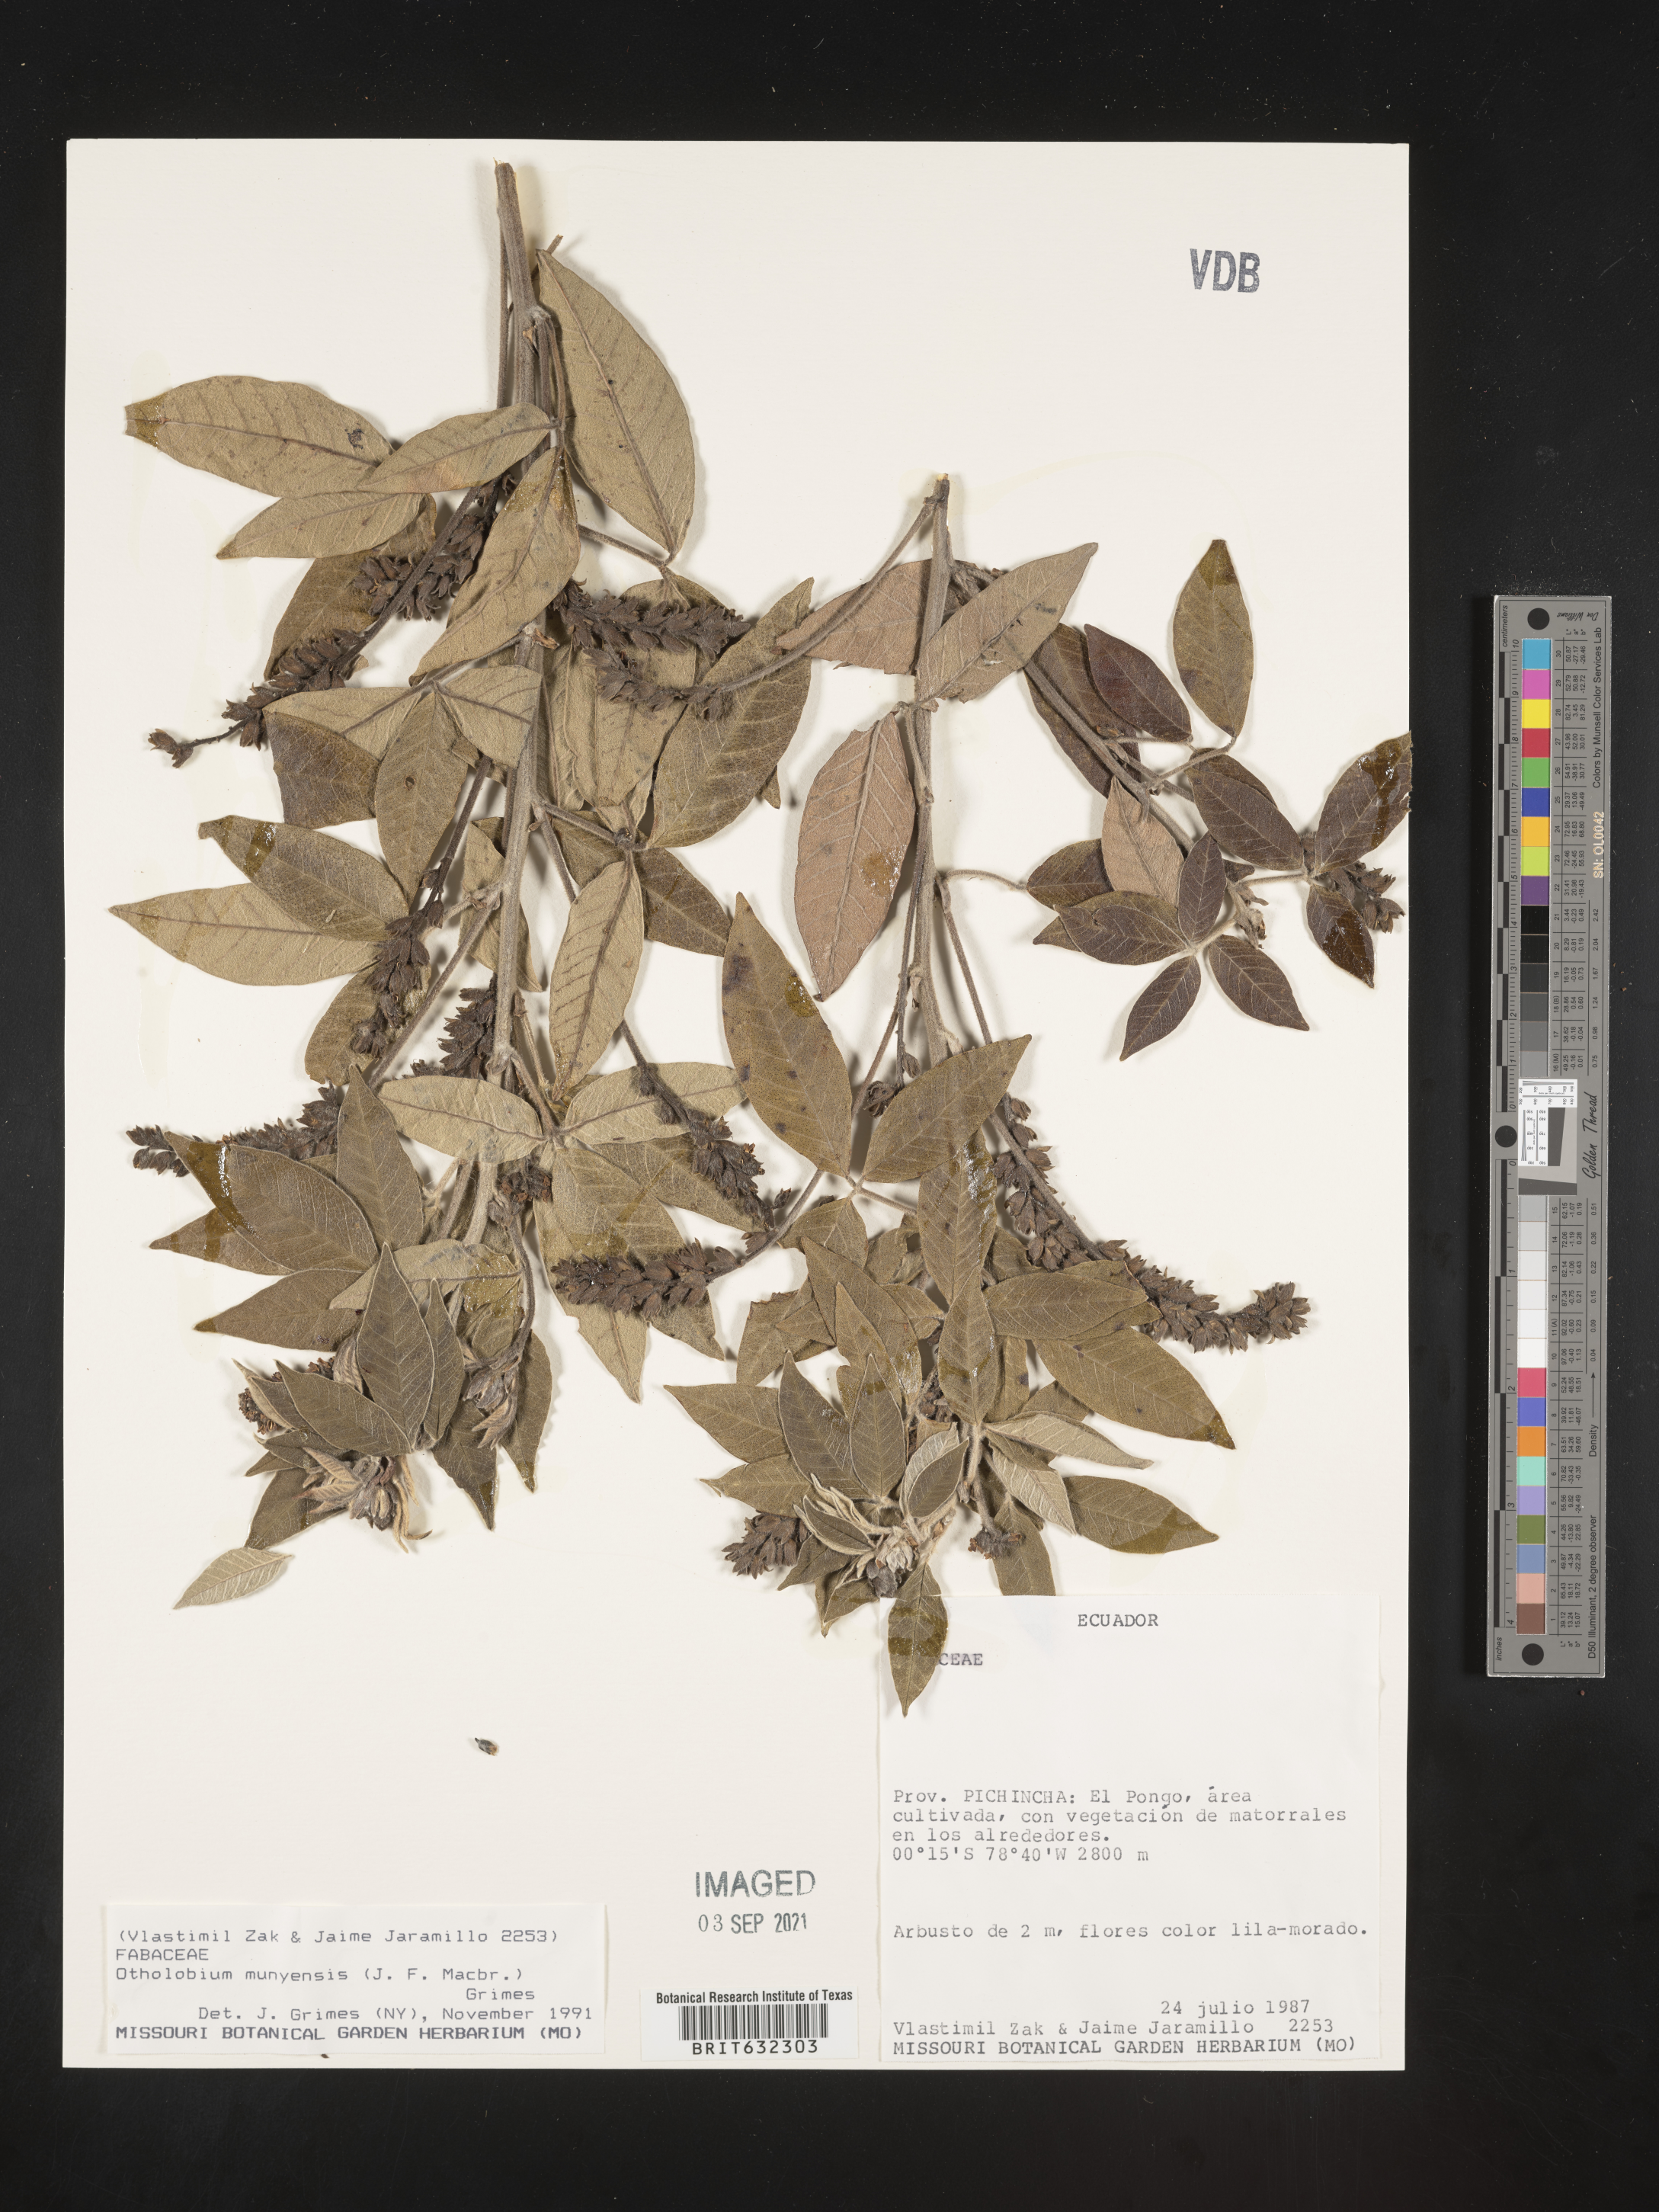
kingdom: Plantae
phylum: Tracheophyta
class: Magnoliopsida
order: Fabales
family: Fabaceae
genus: Otholobium
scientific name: Otholobium
